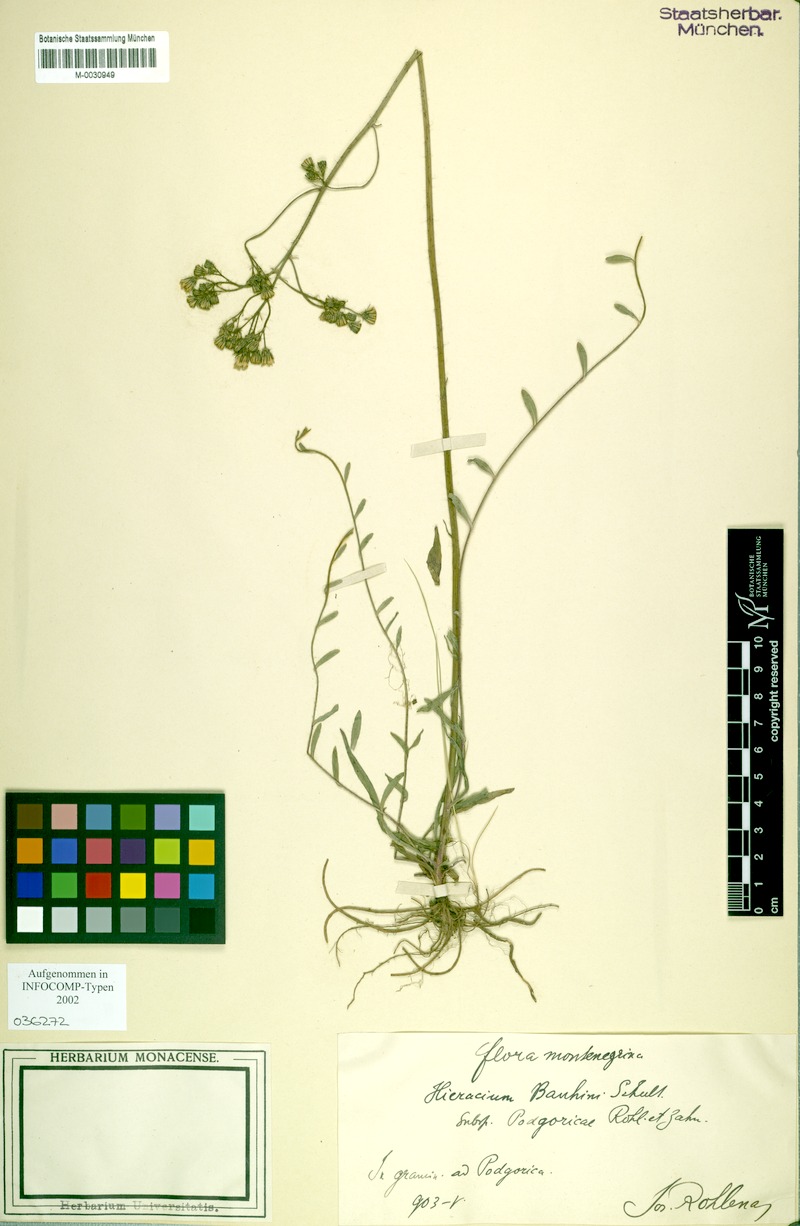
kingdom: Plantae
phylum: Tracheophyta
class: Magnoliopsida
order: Asterales
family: Asteraceae
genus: Pilosella
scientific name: Pilosella bauhini
